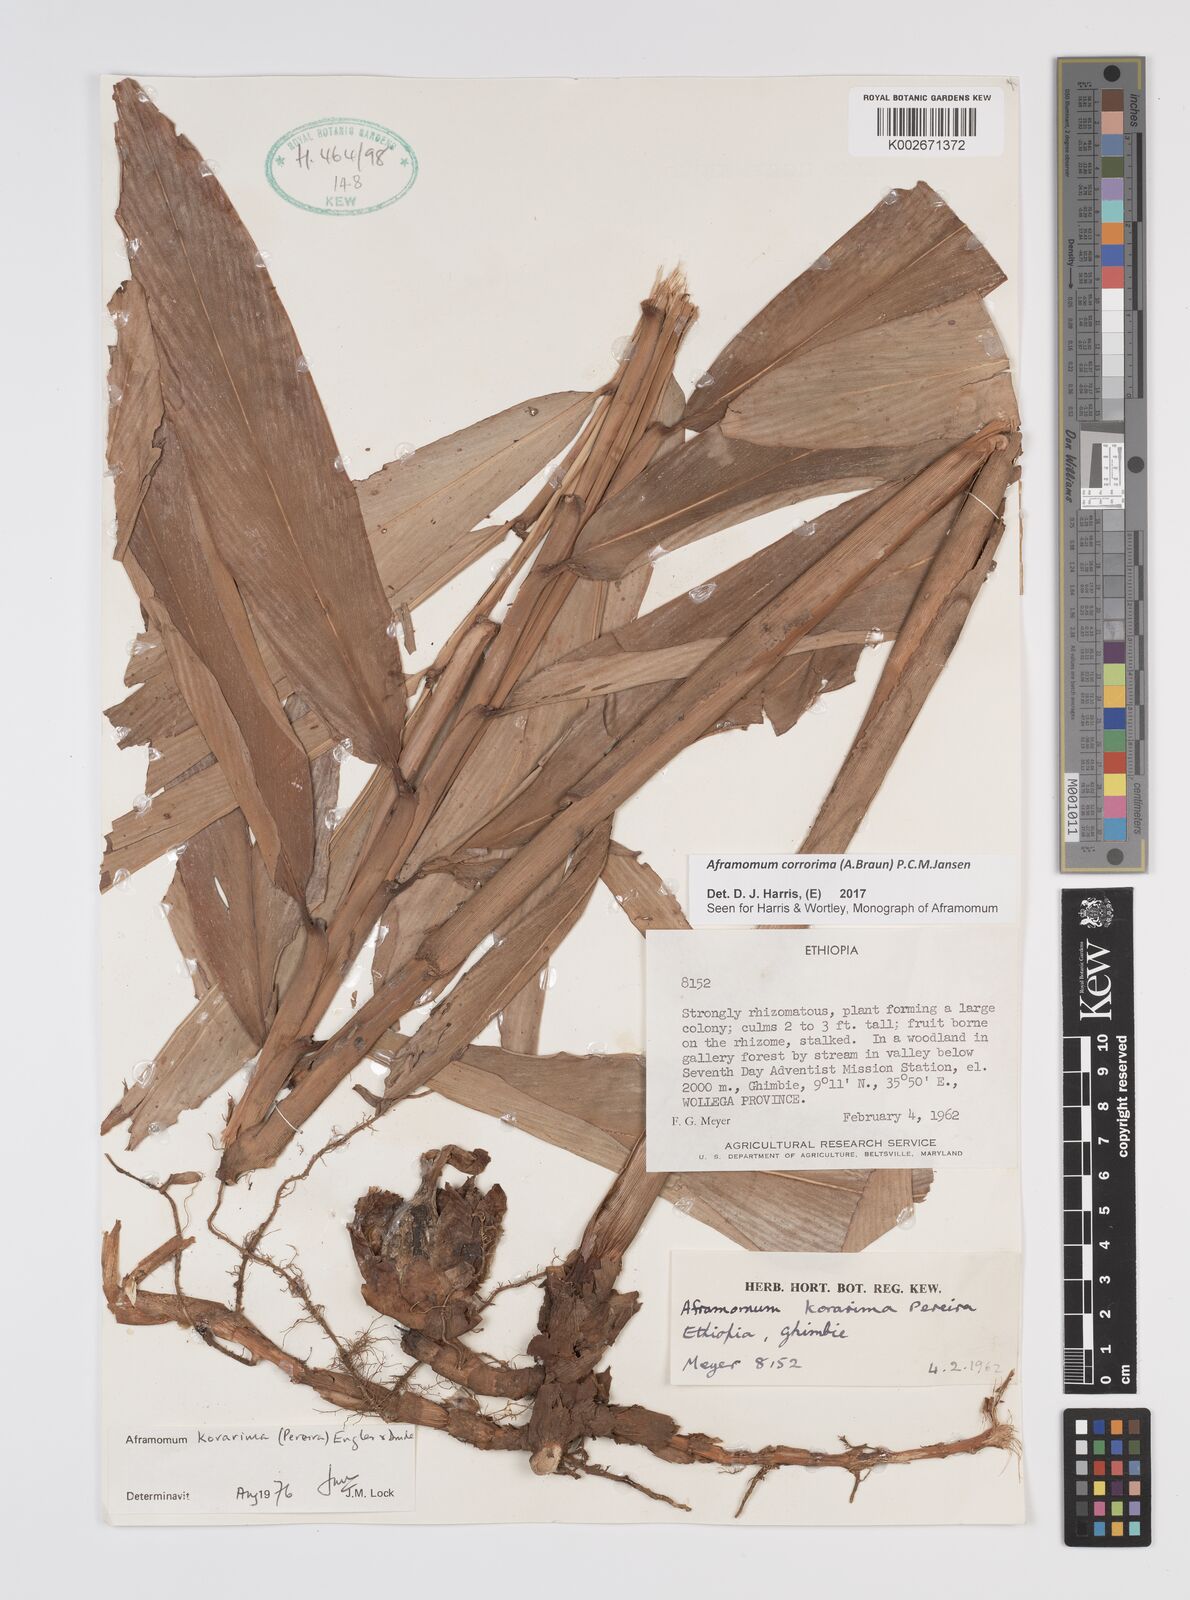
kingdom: Plantae
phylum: Tracheophyta
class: Liliopsida
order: Zingiberales
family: Zingiberaceae
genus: Aframomum
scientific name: Aframomum corrorima
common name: Ethiopian cardamom
